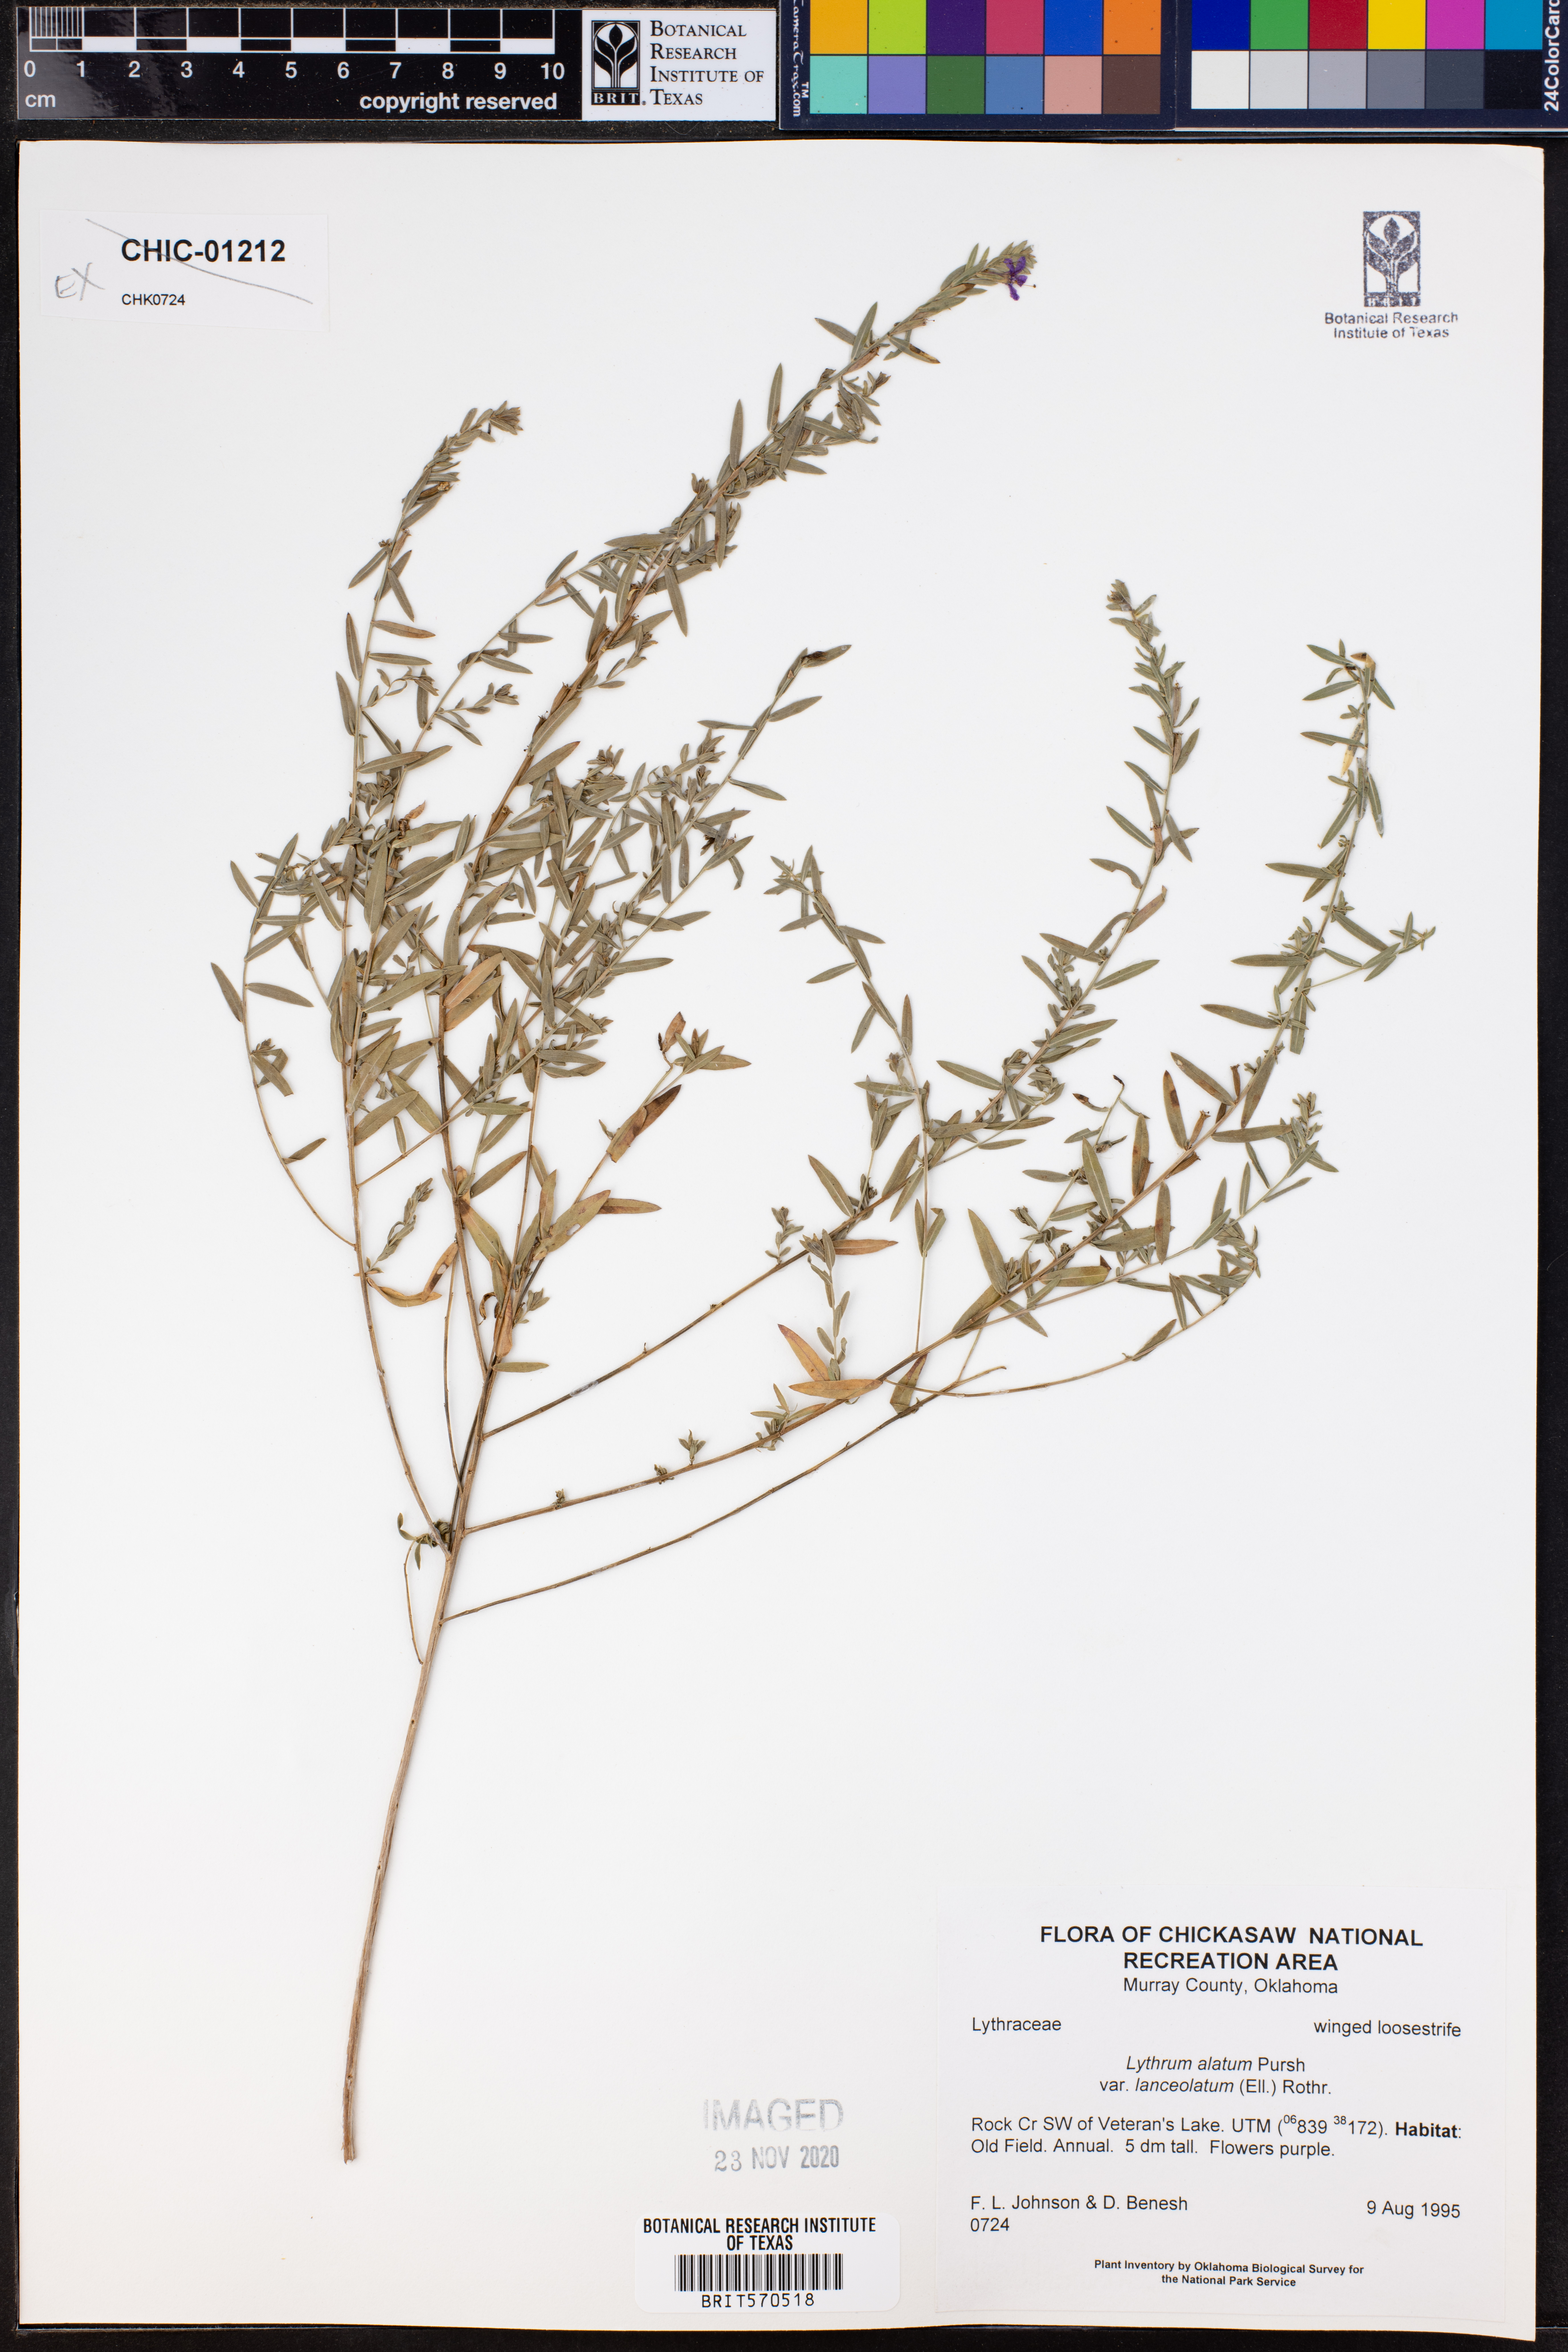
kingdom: Plantae
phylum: Tracheophyta
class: Magnoliopsida
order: Myrtales
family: Lythraceae
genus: Lythrum
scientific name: Lythrum alatum
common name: Winged loosestrife
